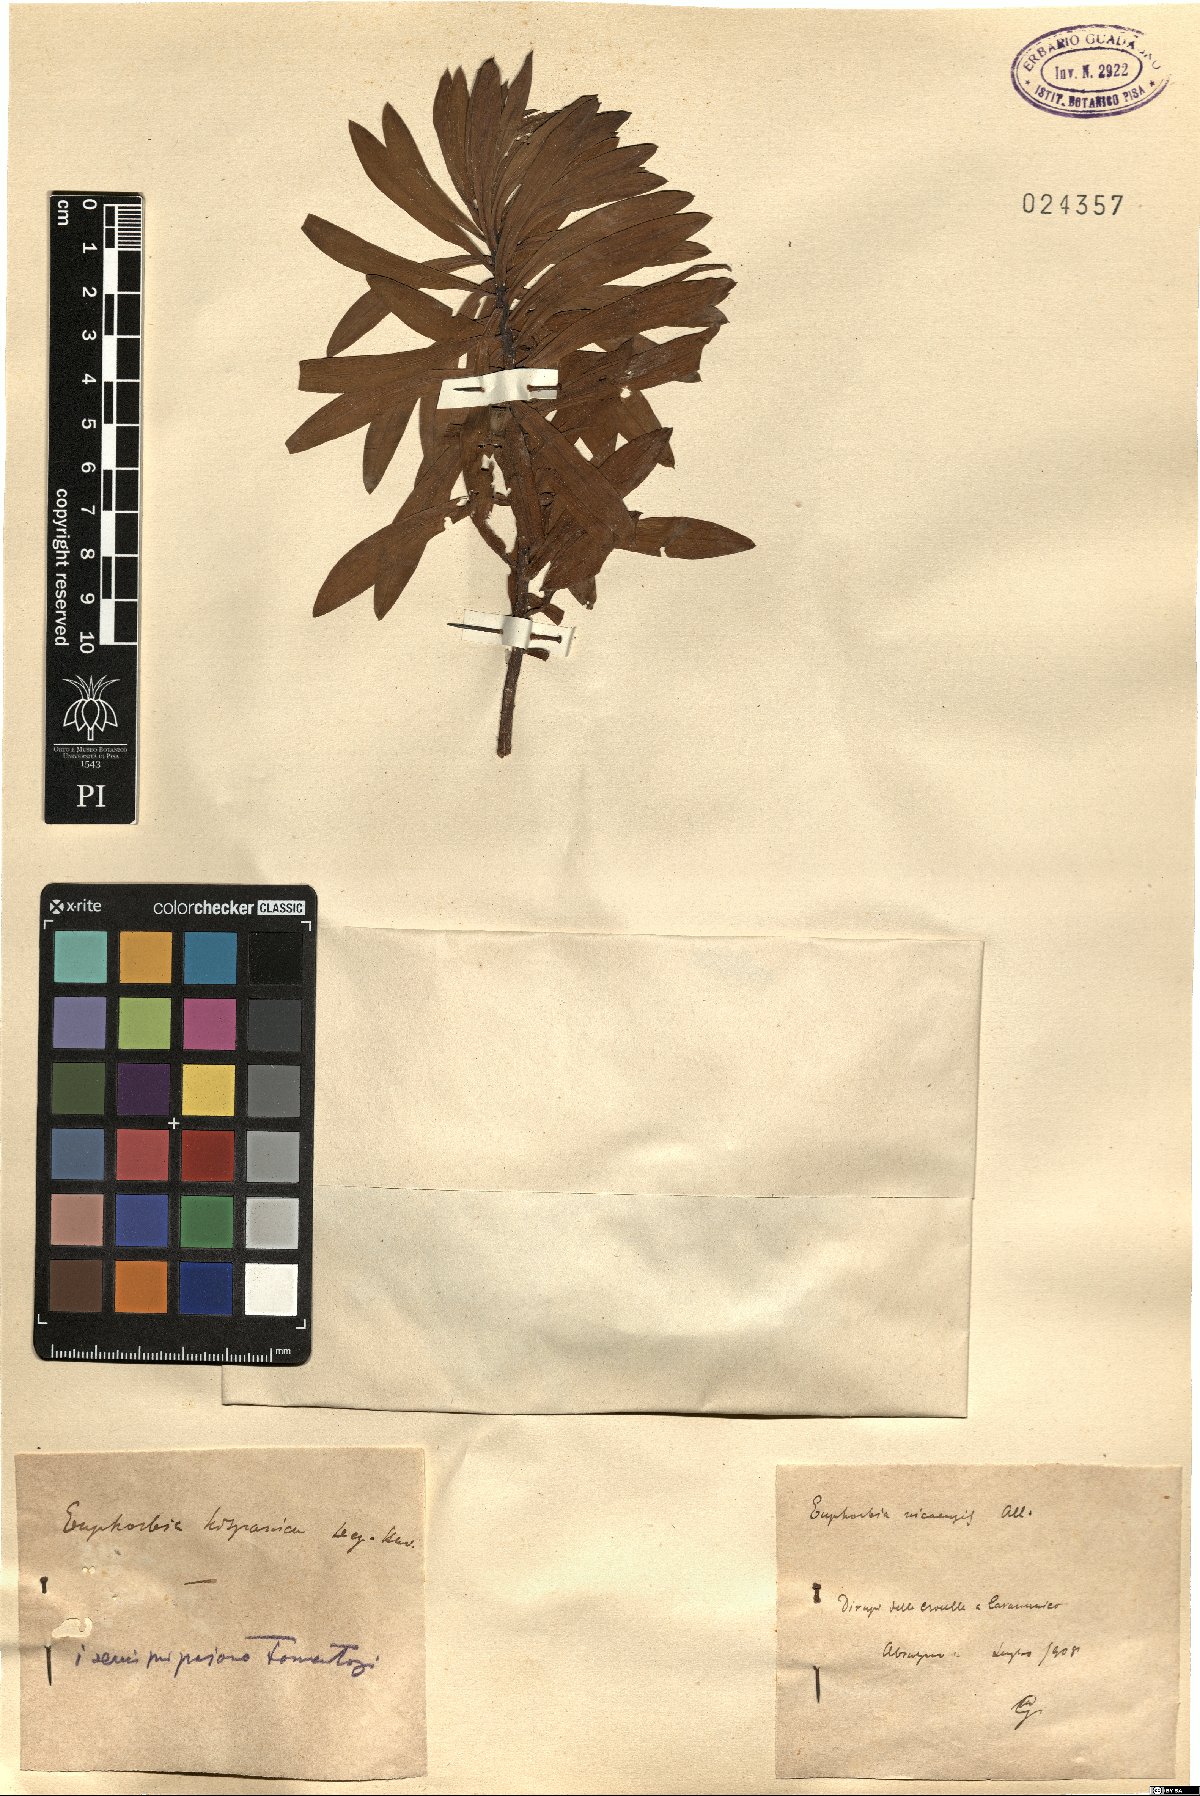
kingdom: Plantae
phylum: Tracheophyta
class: Magnoliopsida
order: Malpighiales
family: Euphorbiaceae
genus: Euphorbia
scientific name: Euphorbia franchetii
